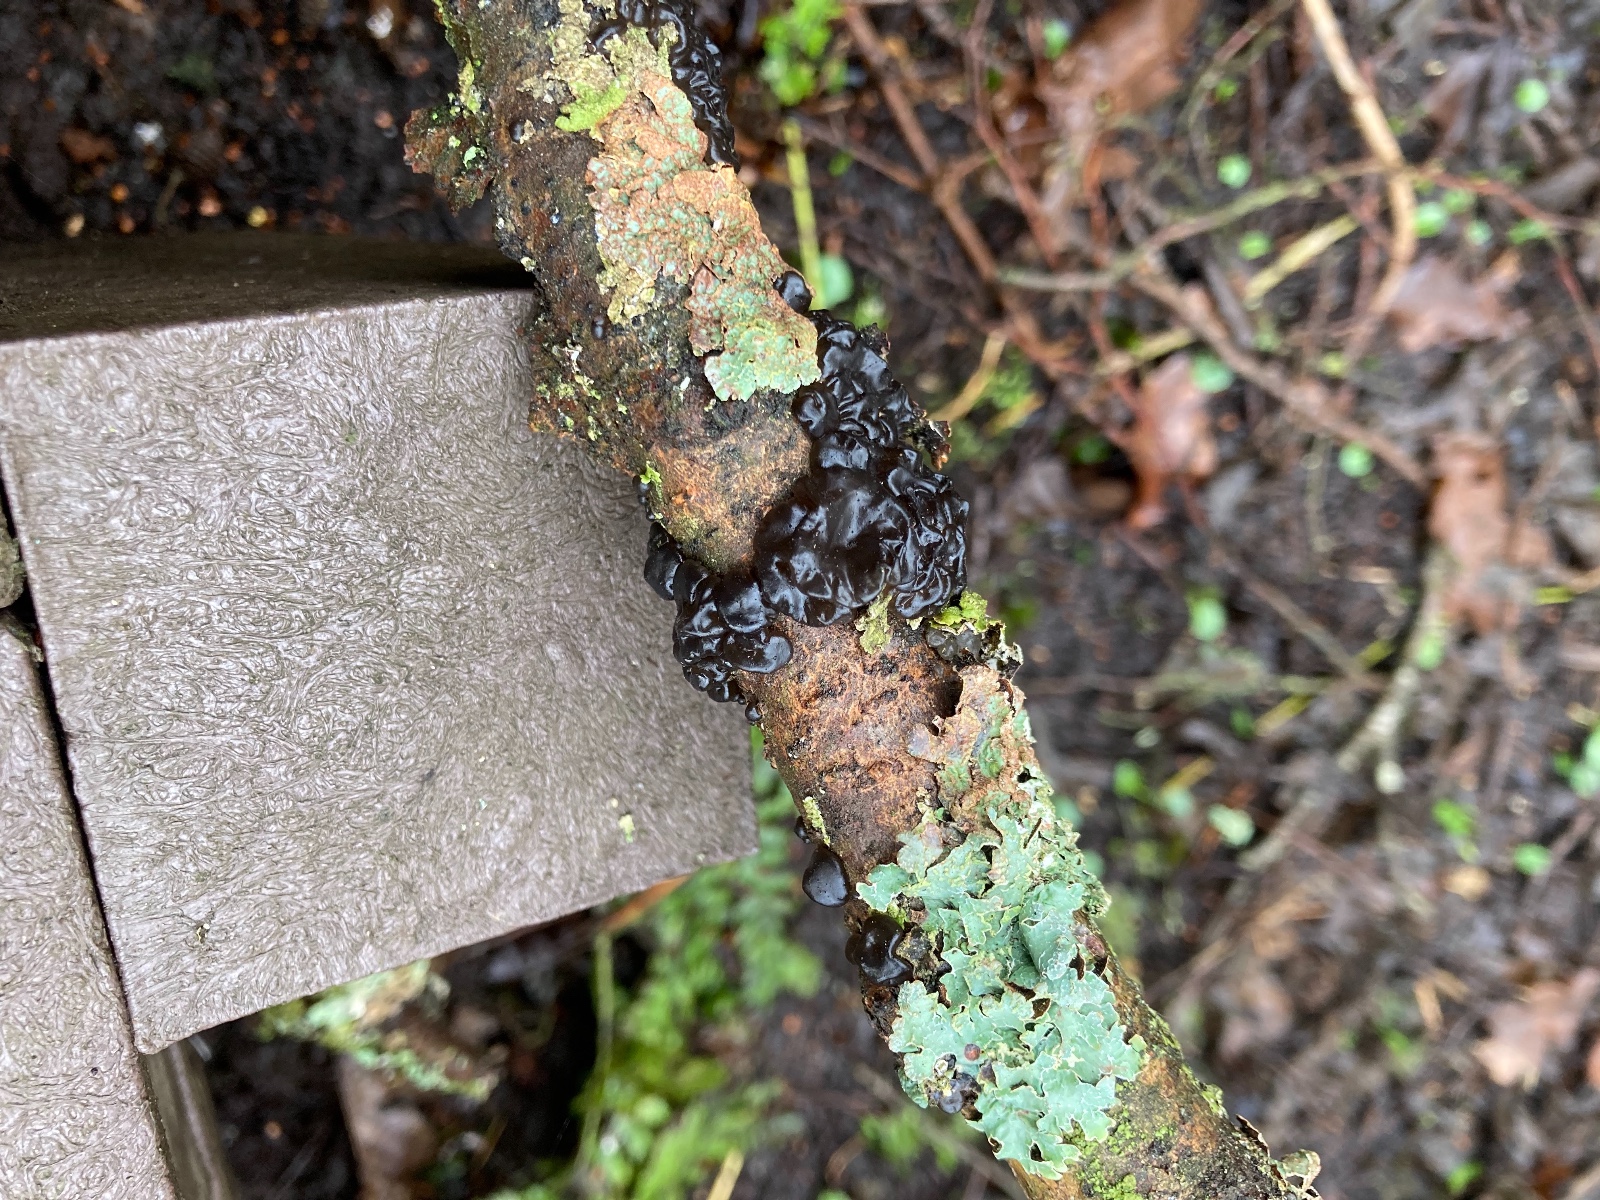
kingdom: Fungi
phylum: Basidiomycota
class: Agaricomycetes
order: Auriculariales
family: Auriculariaceae
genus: Exidia
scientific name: Exidia nigricans
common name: almindelig bævretop
